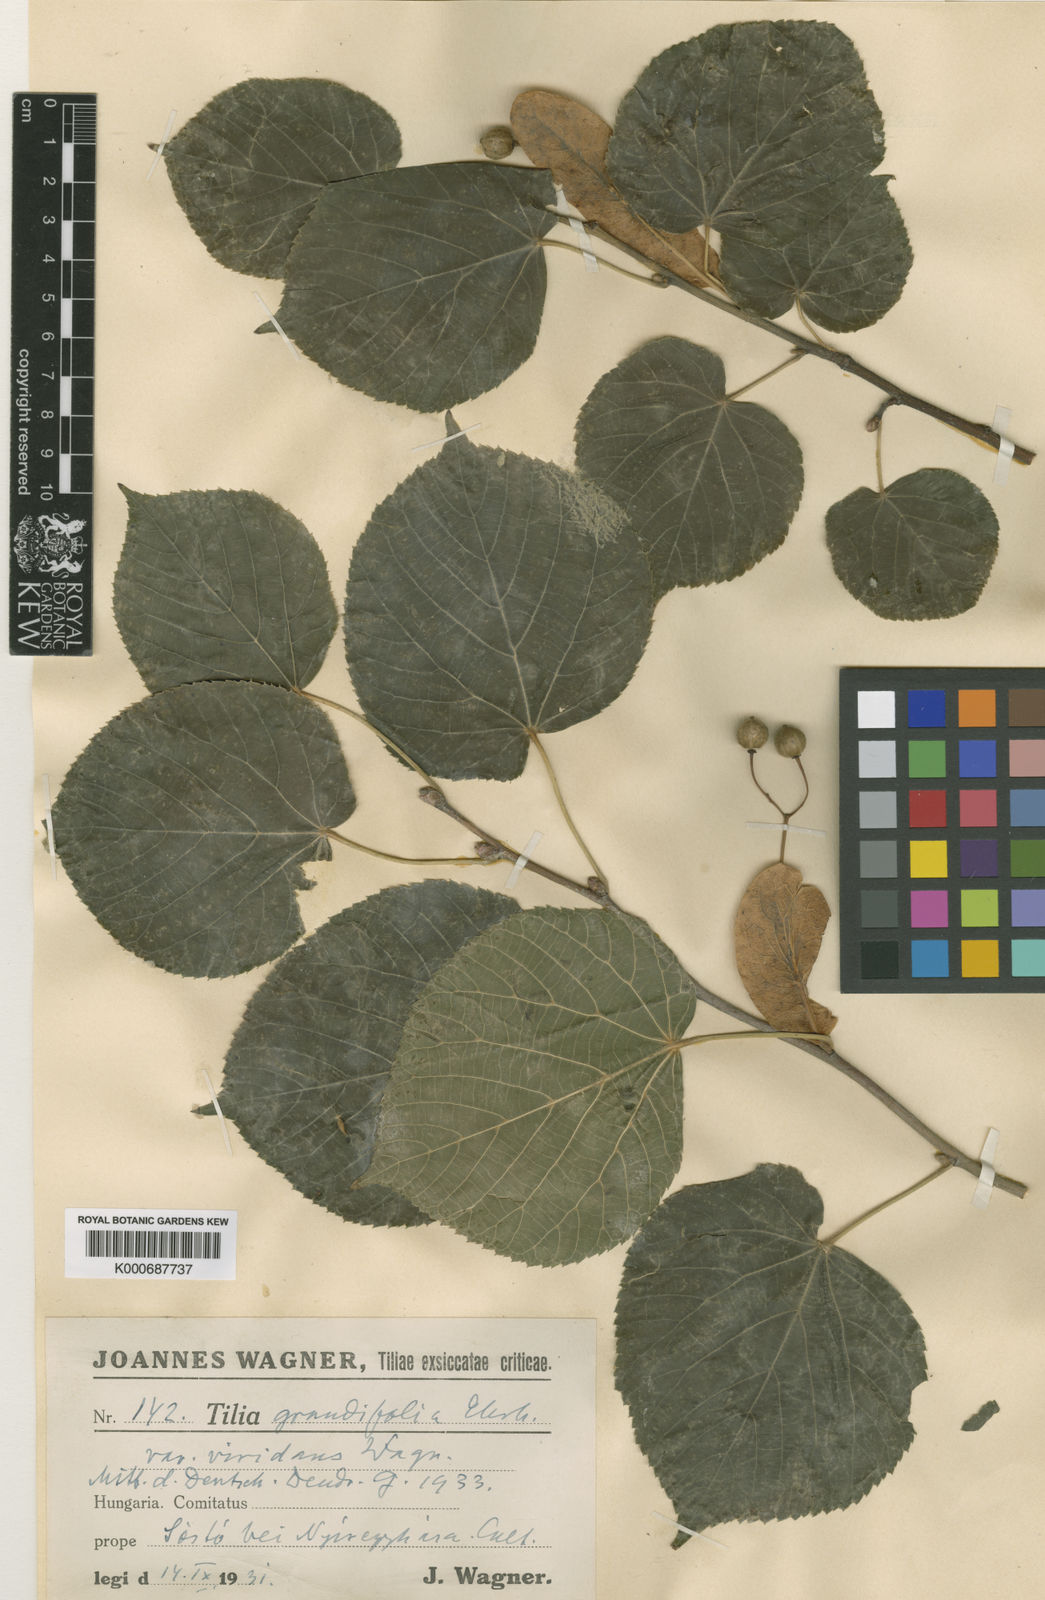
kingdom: Plantae
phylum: Tracheophyta
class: Magnoliopsida
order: Malvales
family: Malvaceae
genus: Tilia
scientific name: Tilia platyphyllos
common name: Large-leaved lime
